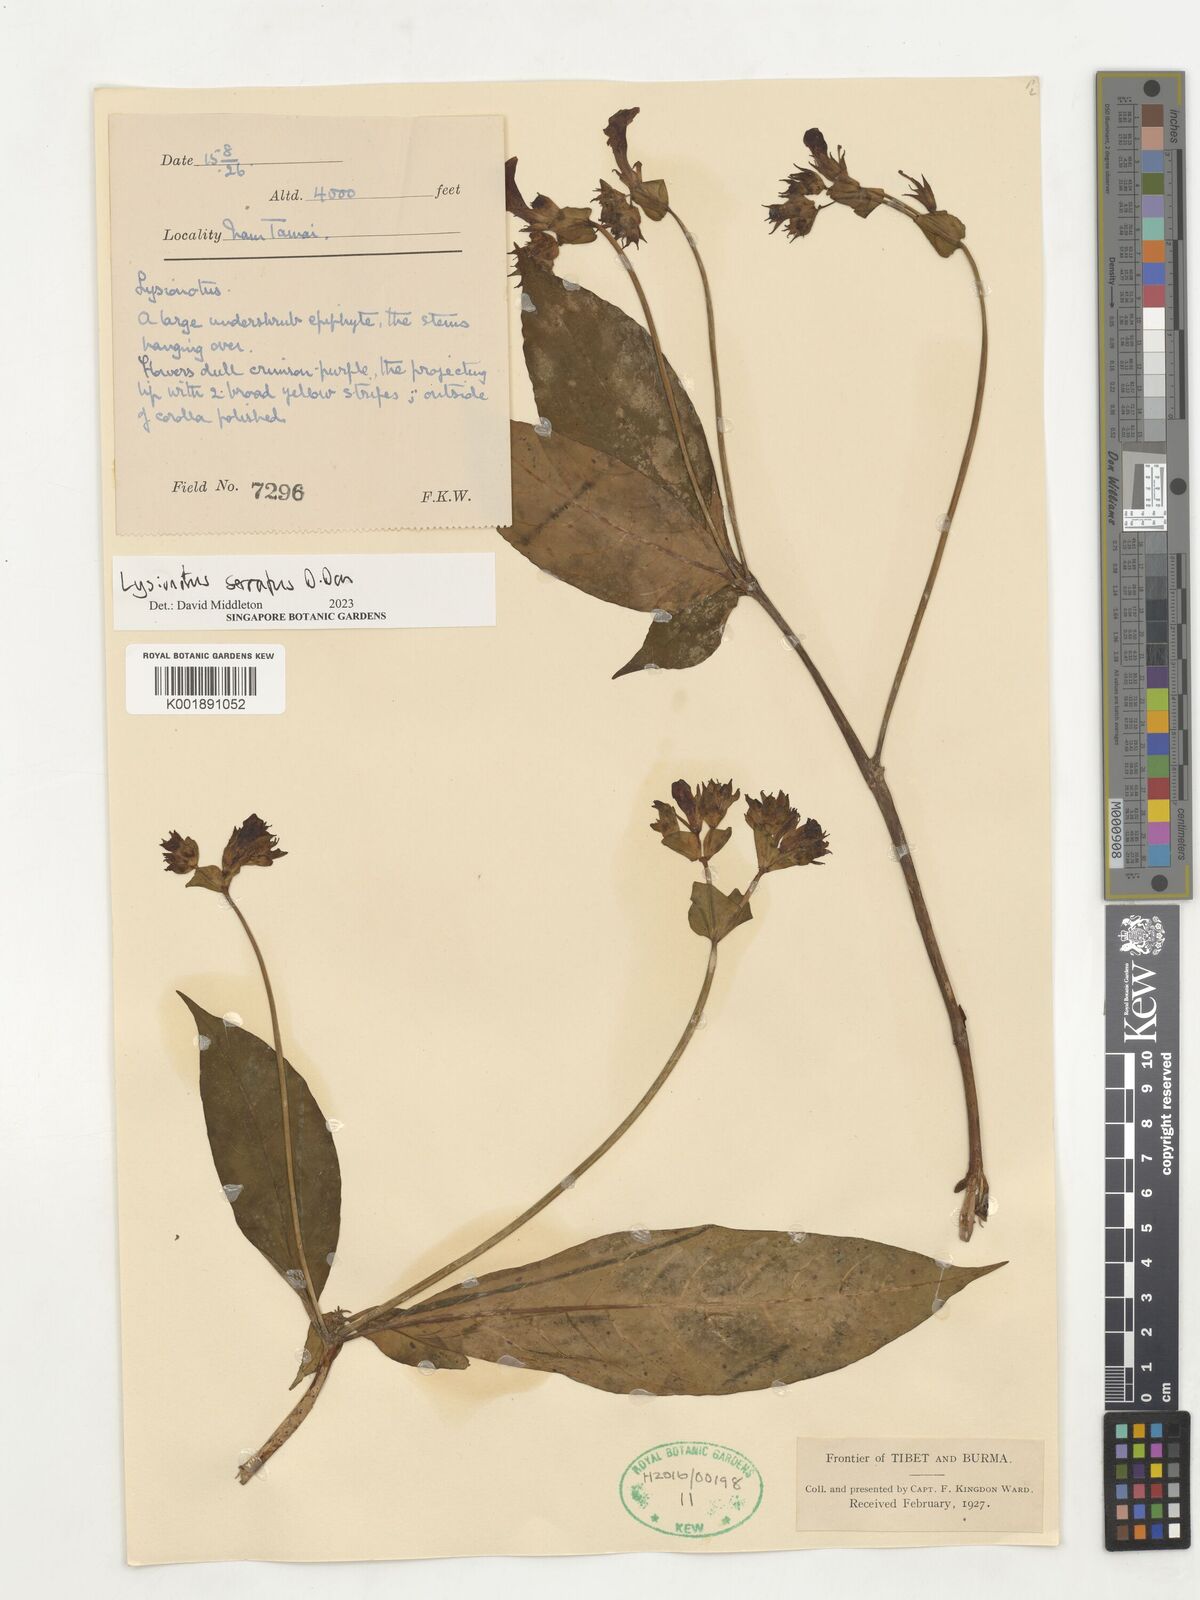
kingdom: Plantae
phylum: Tracheophyta
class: Magnoliopsida
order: Lamiales
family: Gesneriaceae
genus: Lysionotus
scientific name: Lysionotus serratus
